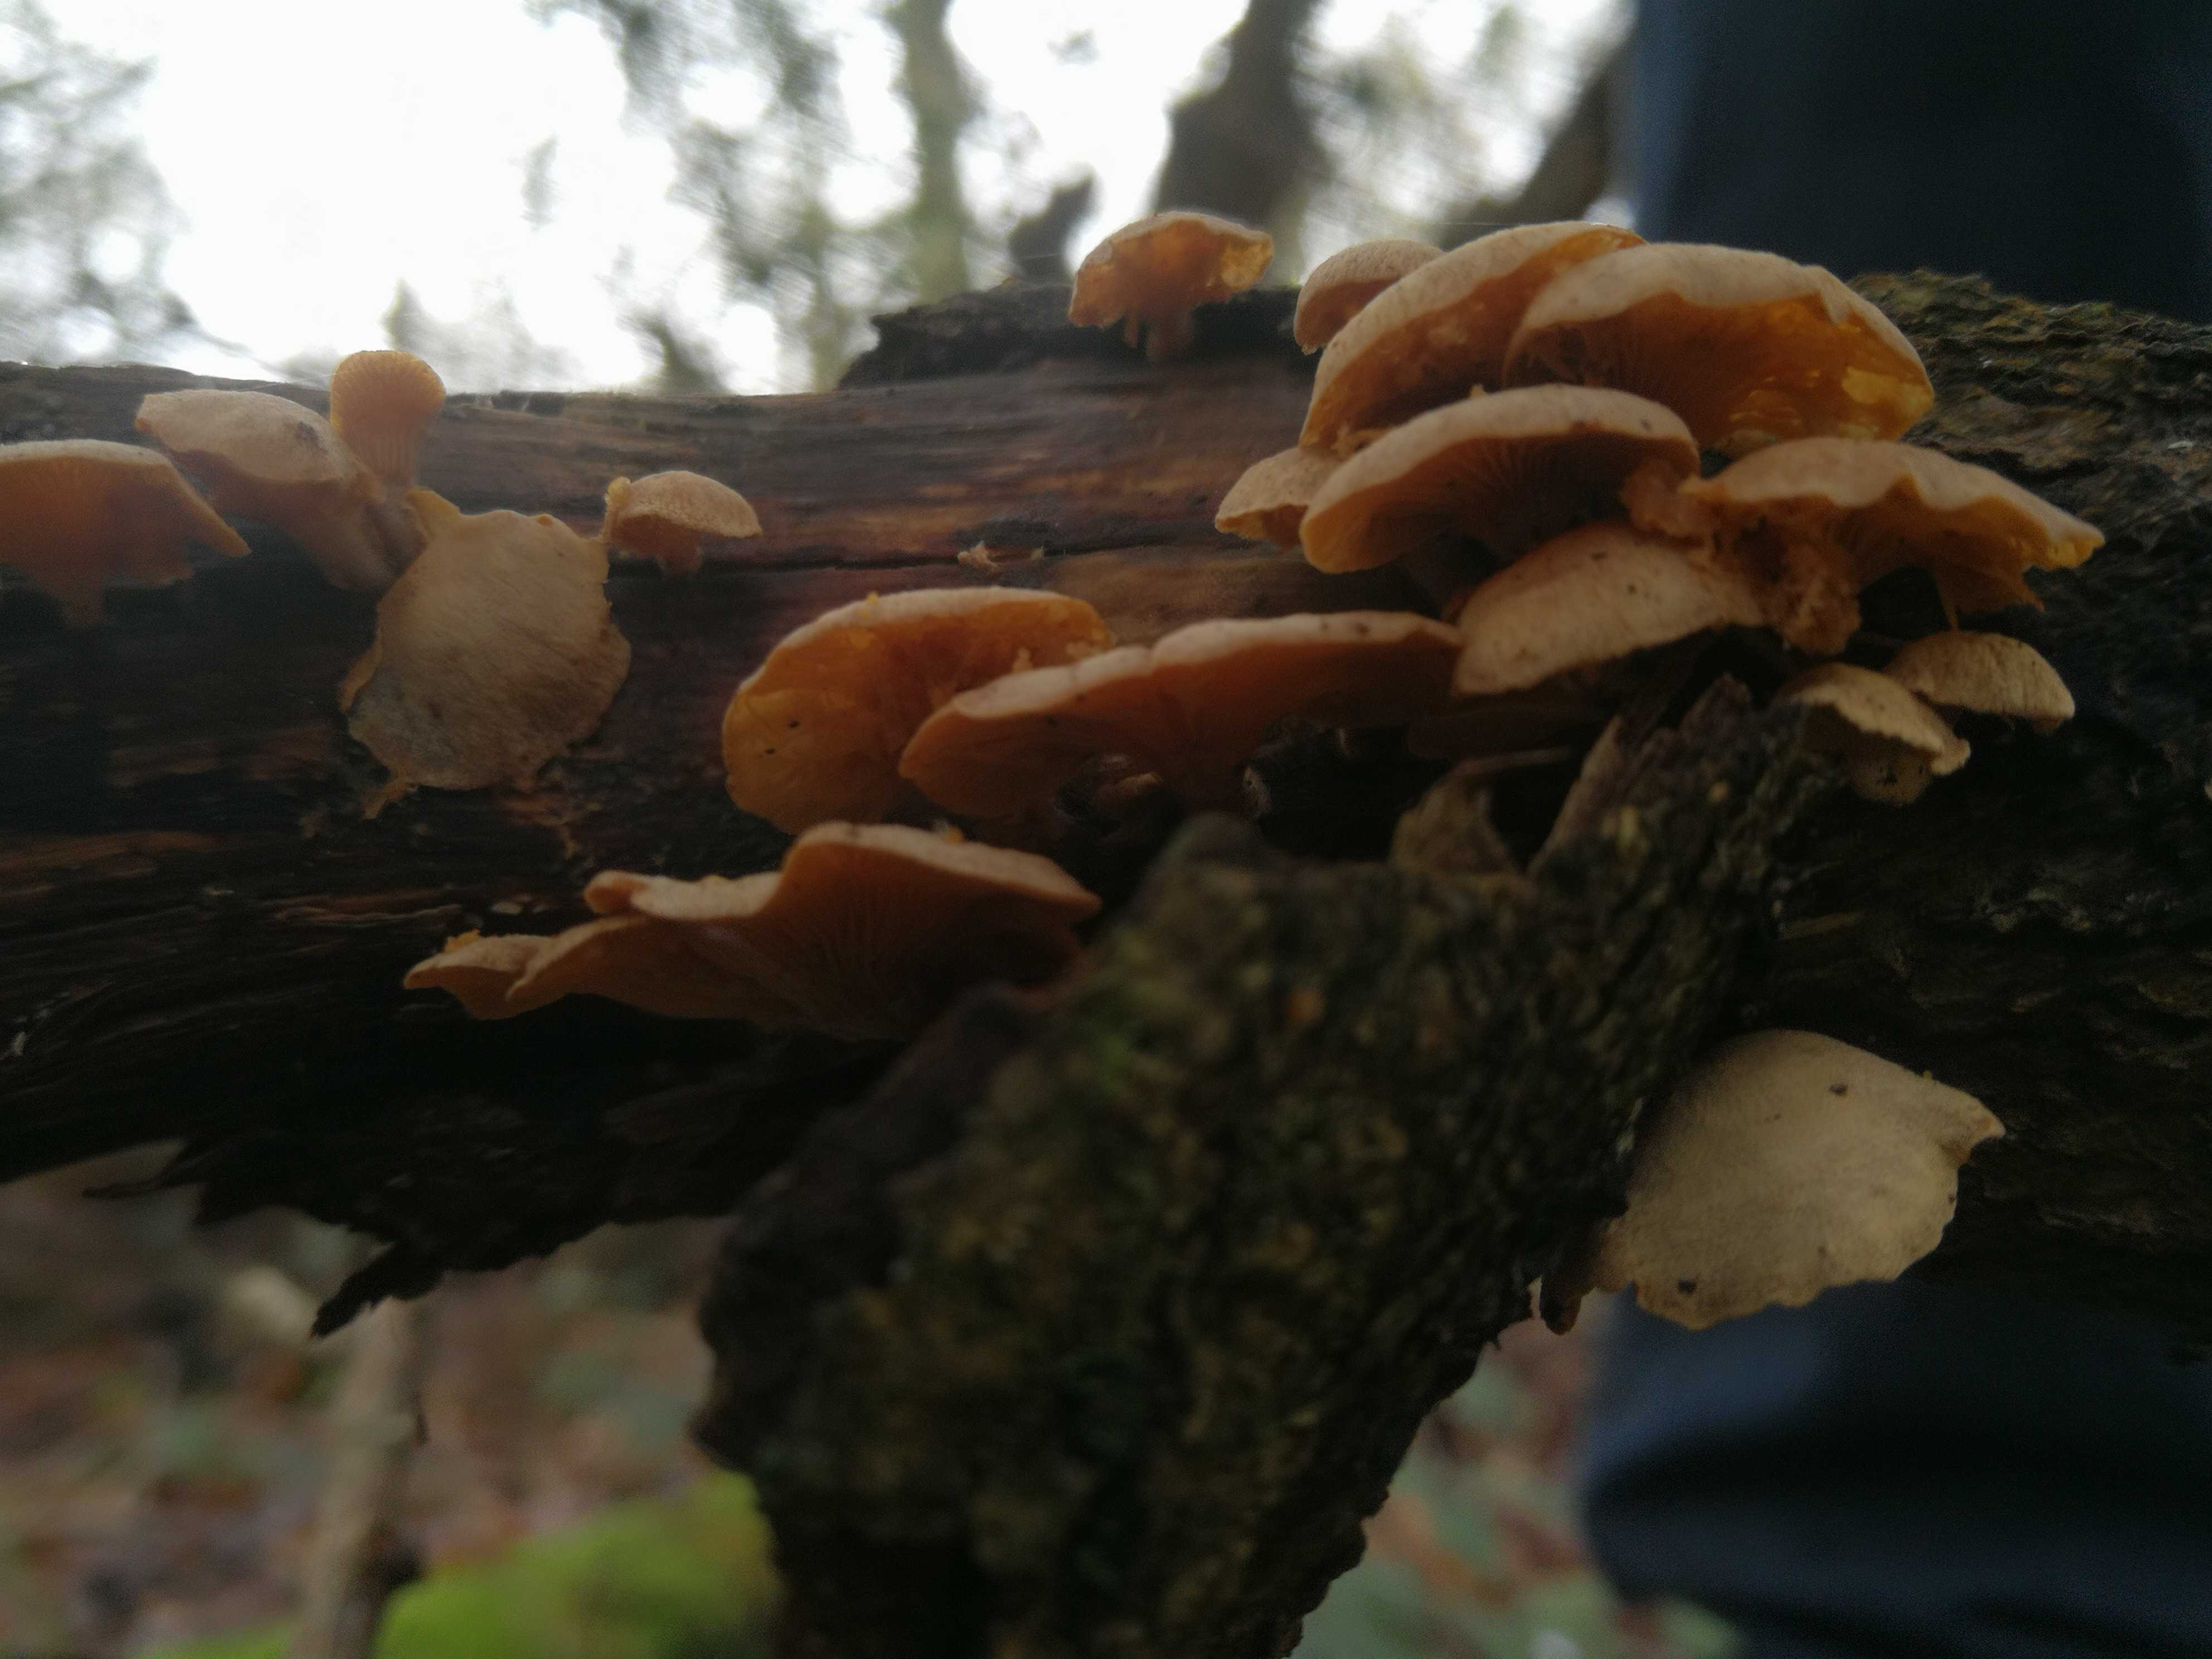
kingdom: Fungi
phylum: Basidiomycota
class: Agaricomycetes
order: Agaricales
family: Tubariaceae
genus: Tubaria
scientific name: Tubaria furfuracea
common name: kliddet fnughat
